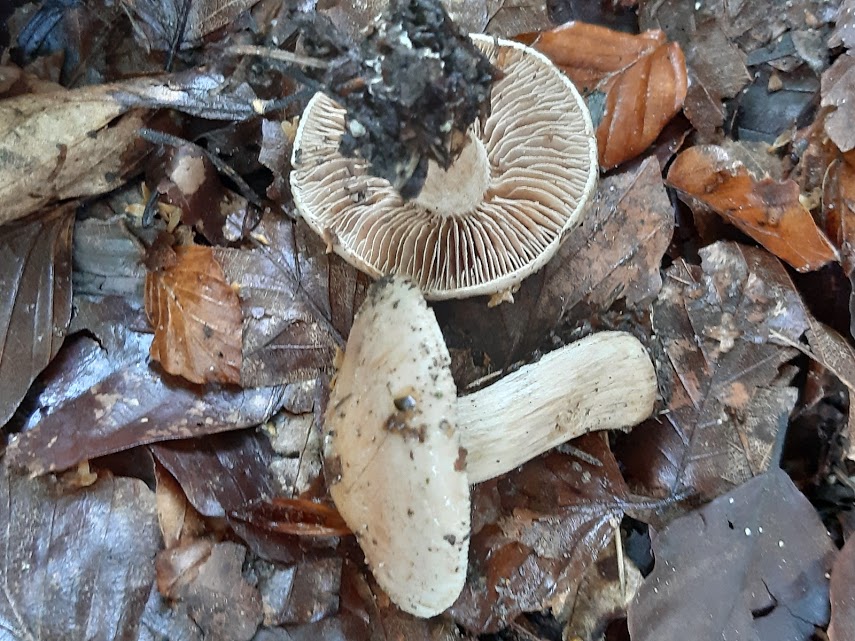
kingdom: Fungi
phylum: Basidiomycota
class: Agaricomycetes
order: Russulales
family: Russulaceae
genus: Russula
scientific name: Russula adusta
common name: sværtende skørhat
